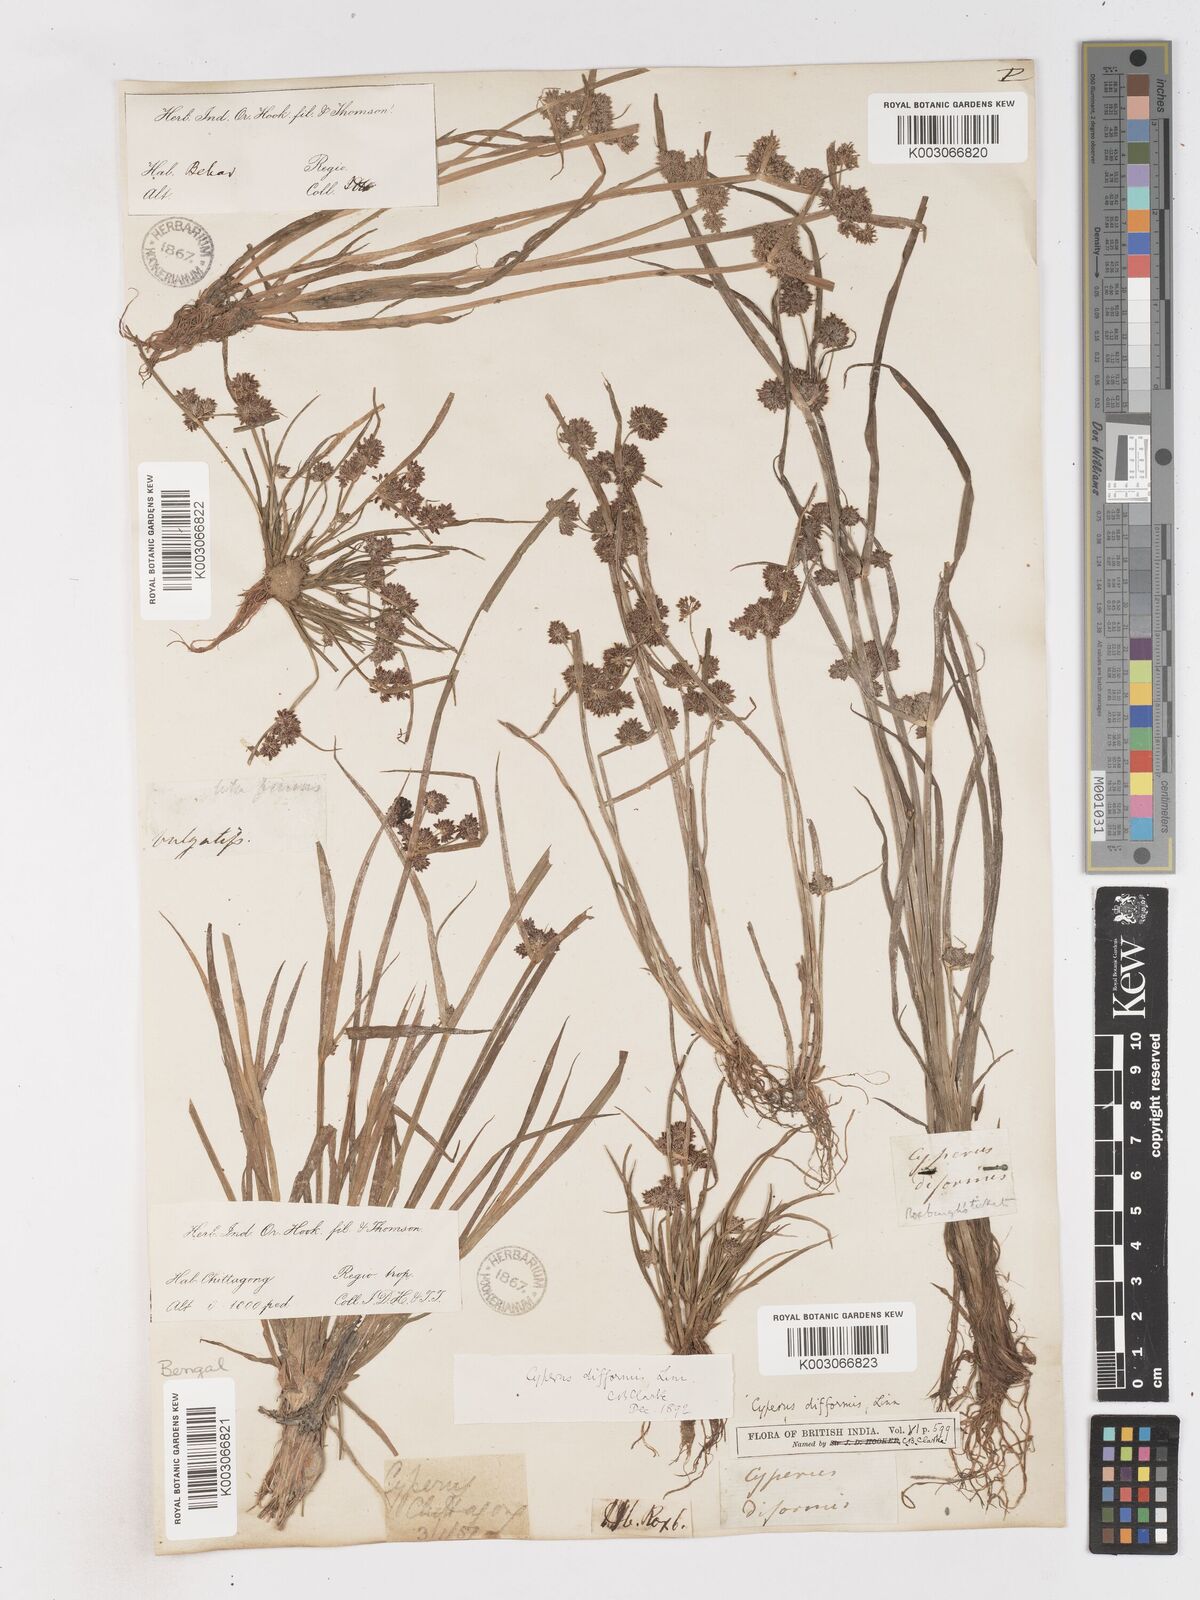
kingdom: Plantae
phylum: Tracheophyta
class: Liliopsida
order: Poales
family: Cyperaceae
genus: Cyperus
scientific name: Cyperus difformis
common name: Variable flatsedge
